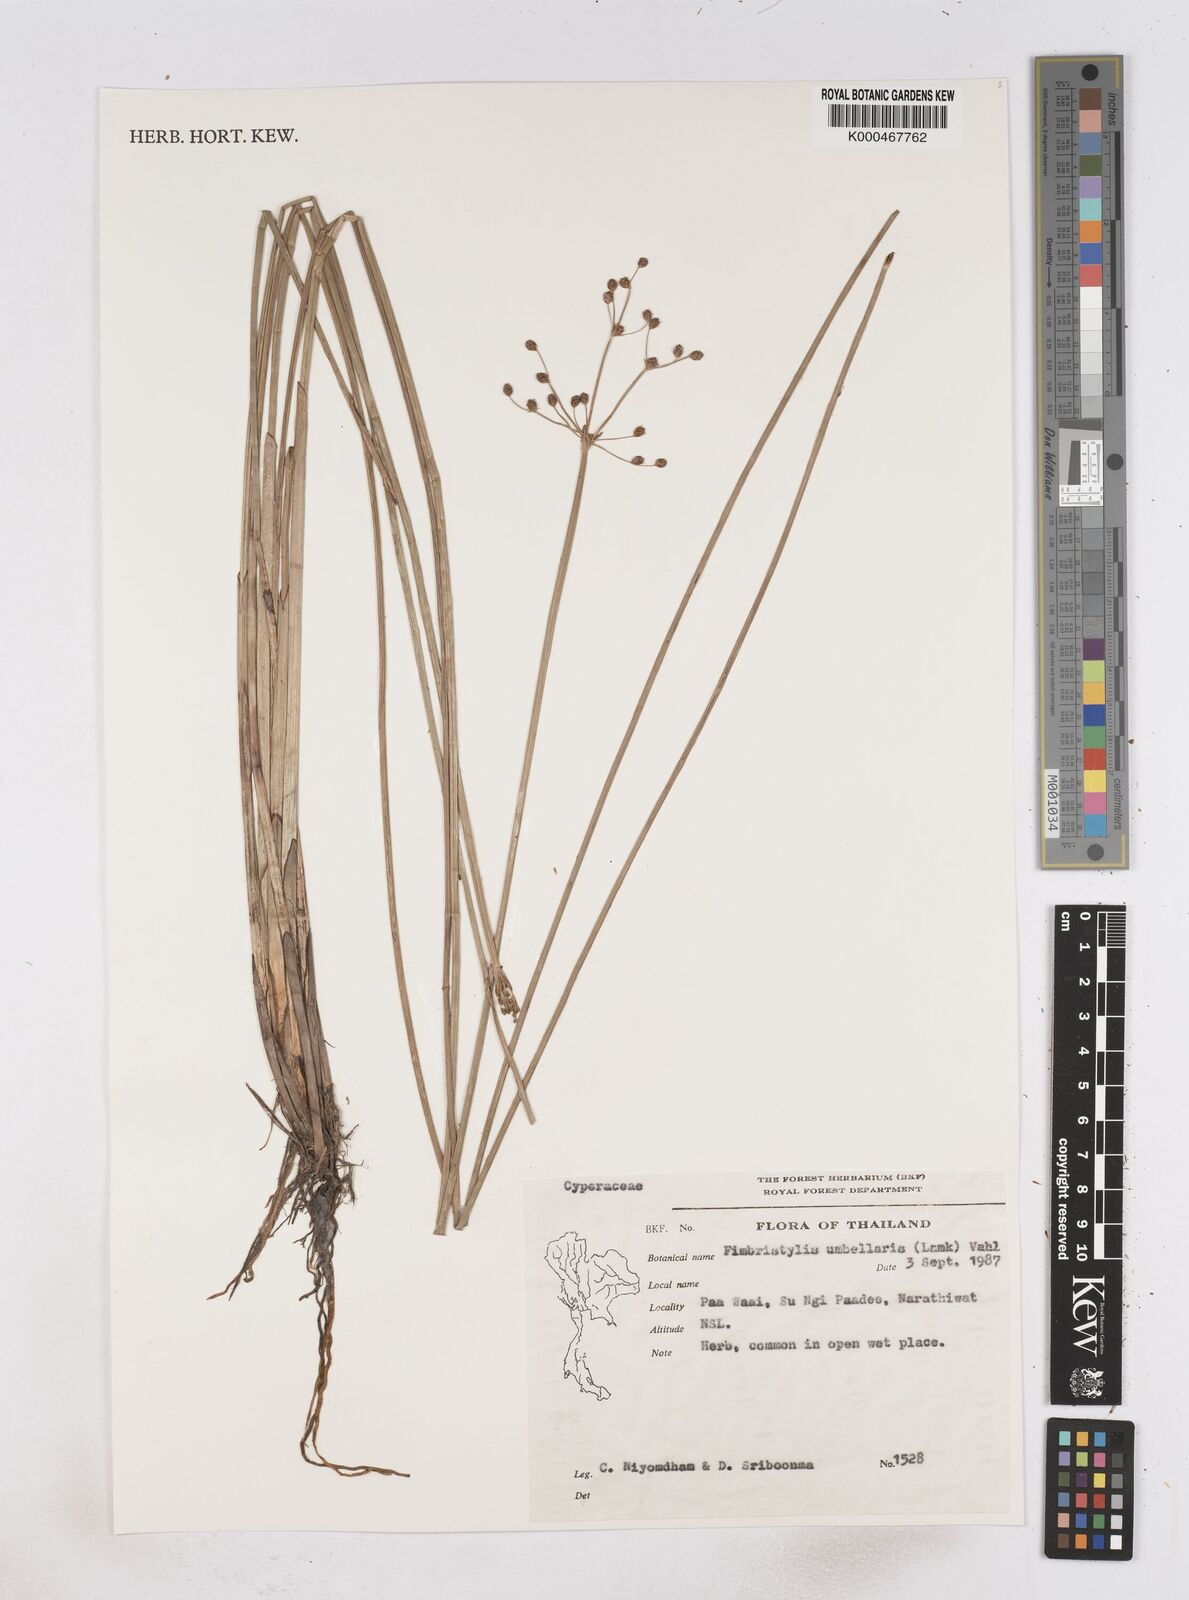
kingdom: Plantae
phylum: Tracheophyta
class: Liliopsida
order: Poales
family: Cyperaceae
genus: Fimbristylis
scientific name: Fimbristylis umbellaris
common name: Globular fimbristylis
